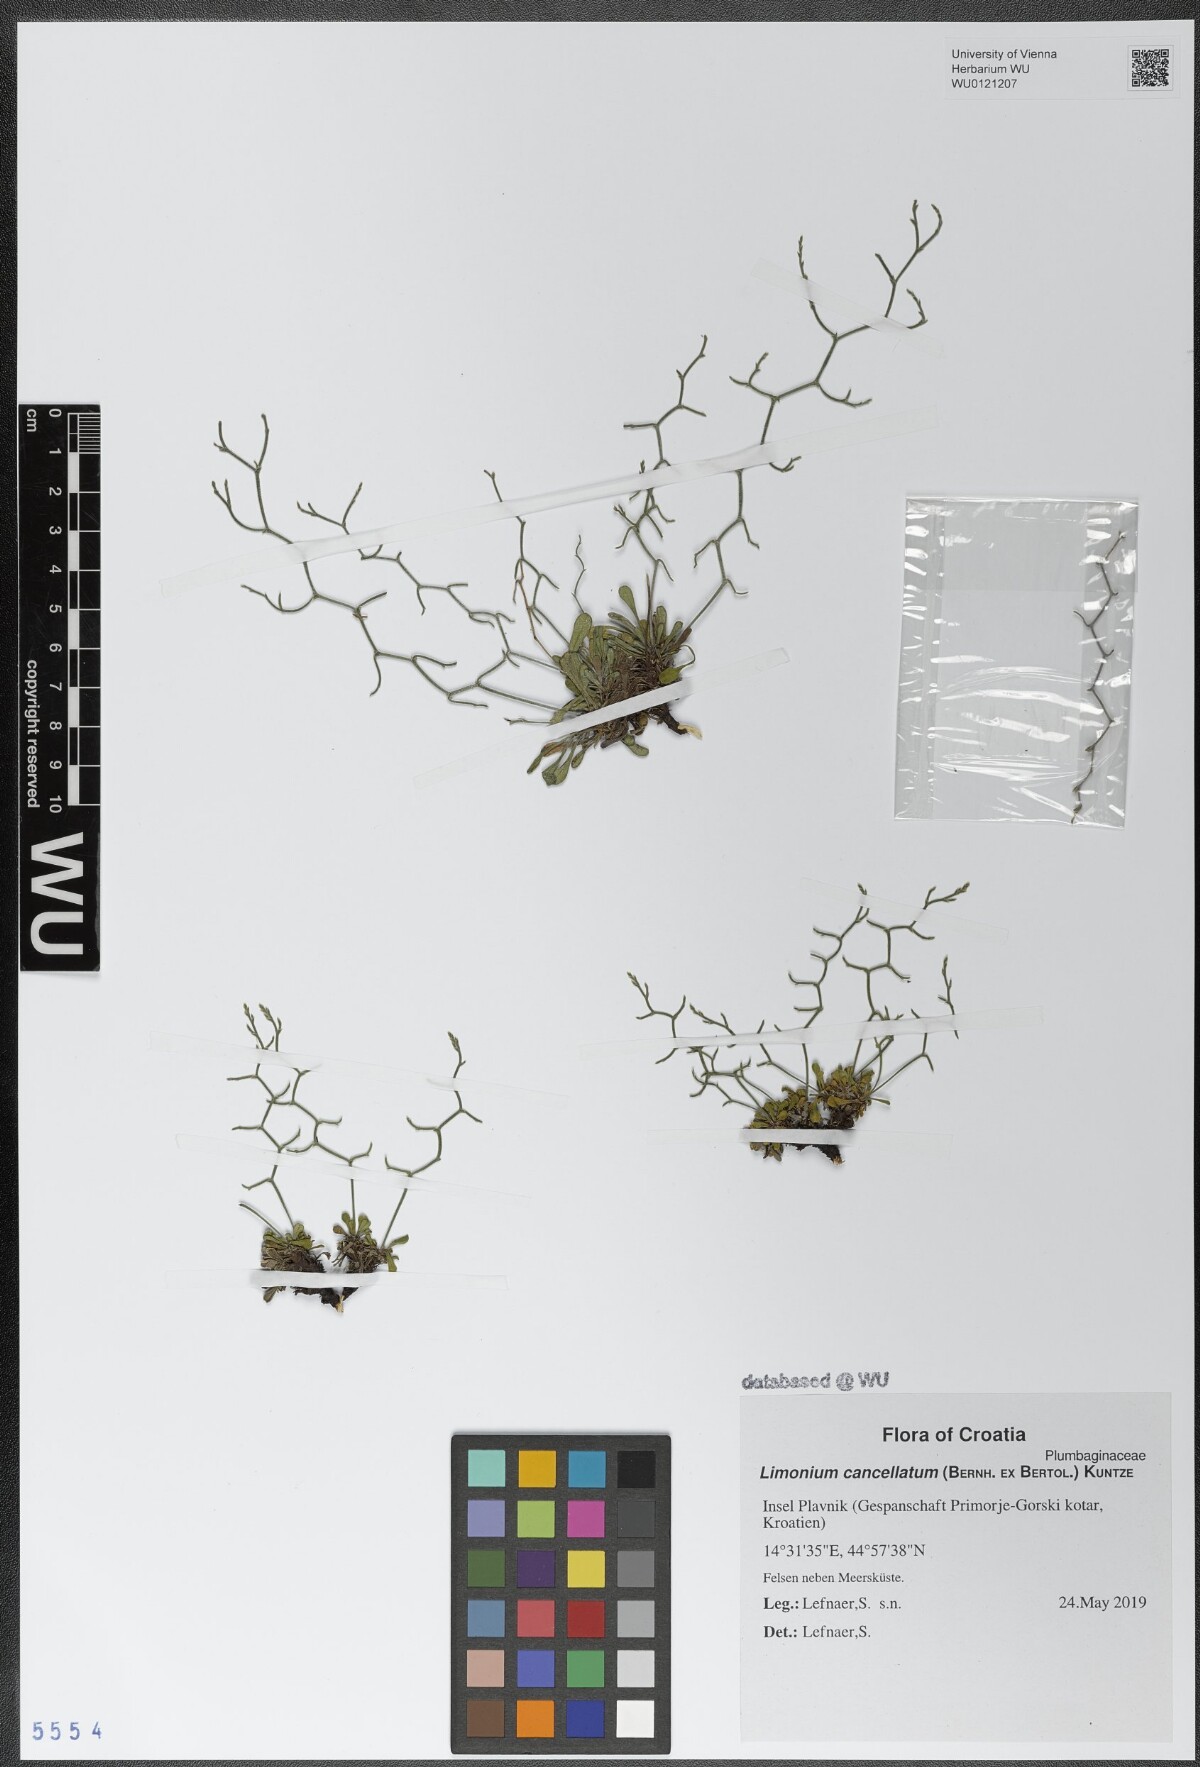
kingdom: Plantae
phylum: Tracheophyta
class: Magnoliopsida
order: Caryophyllales
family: Plumbaginaceae
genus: Limonium
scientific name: Limonium cancellatum
